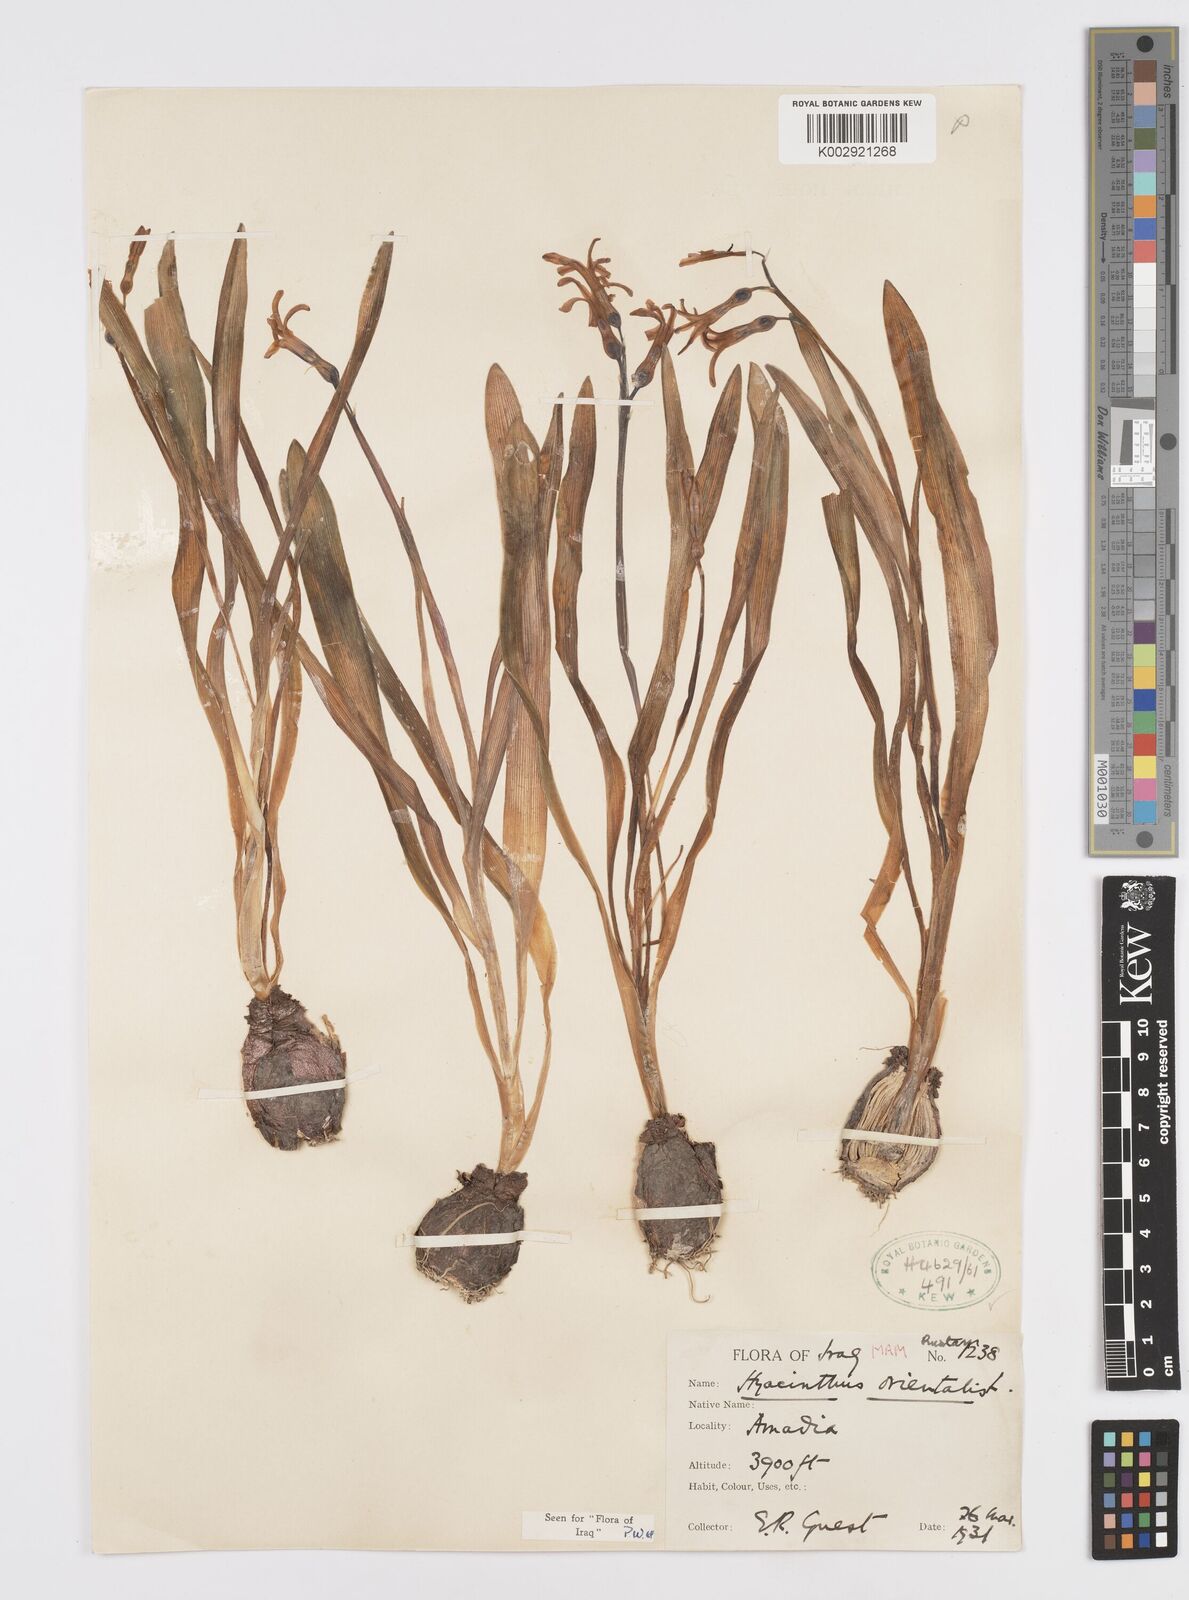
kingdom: Plantae
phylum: Tracheophyta
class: Liliopsida
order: Asparagales
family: Asparagaceae
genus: Hyacinthus
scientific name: Hyacinthus orientalis
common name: Hyacinth
